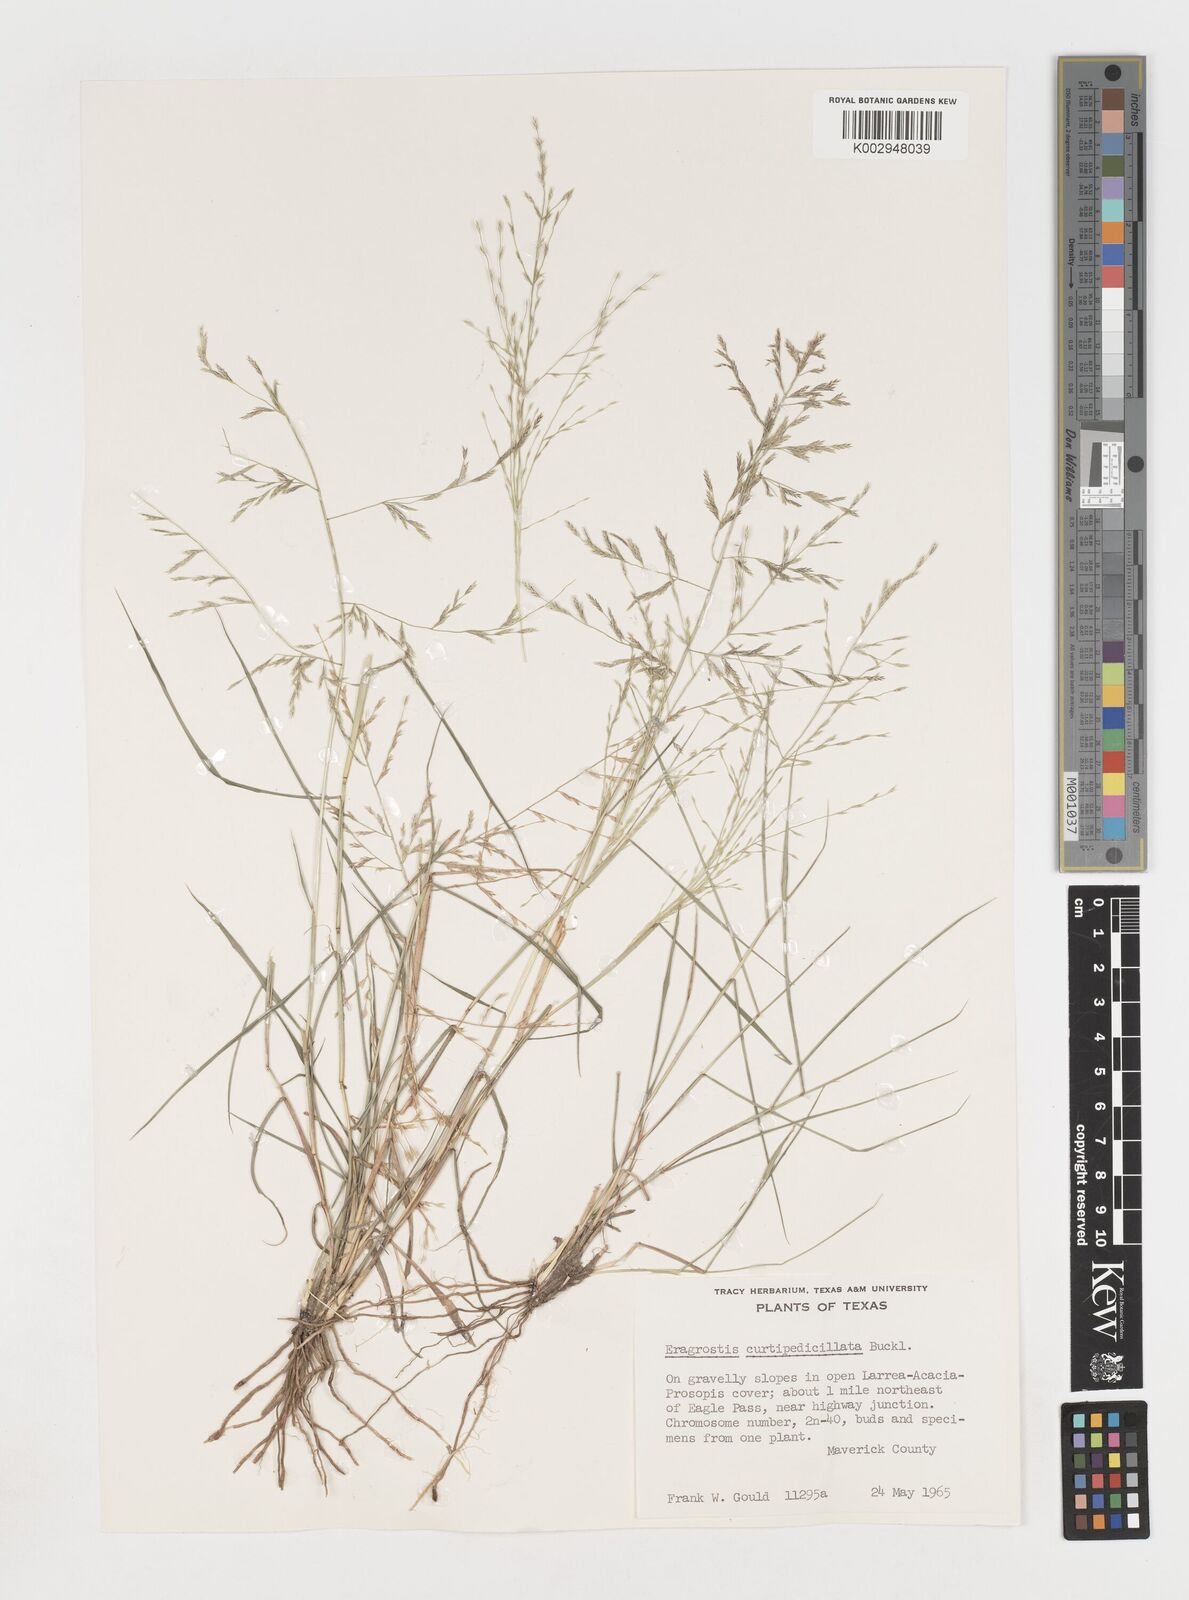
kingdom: Plantae
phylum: Tracheophyta
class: Liliopsida
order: Poales
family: Poaceae
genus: Eragrostis
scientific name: Eragrostis curtipedicellata
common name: Gummy love grass
